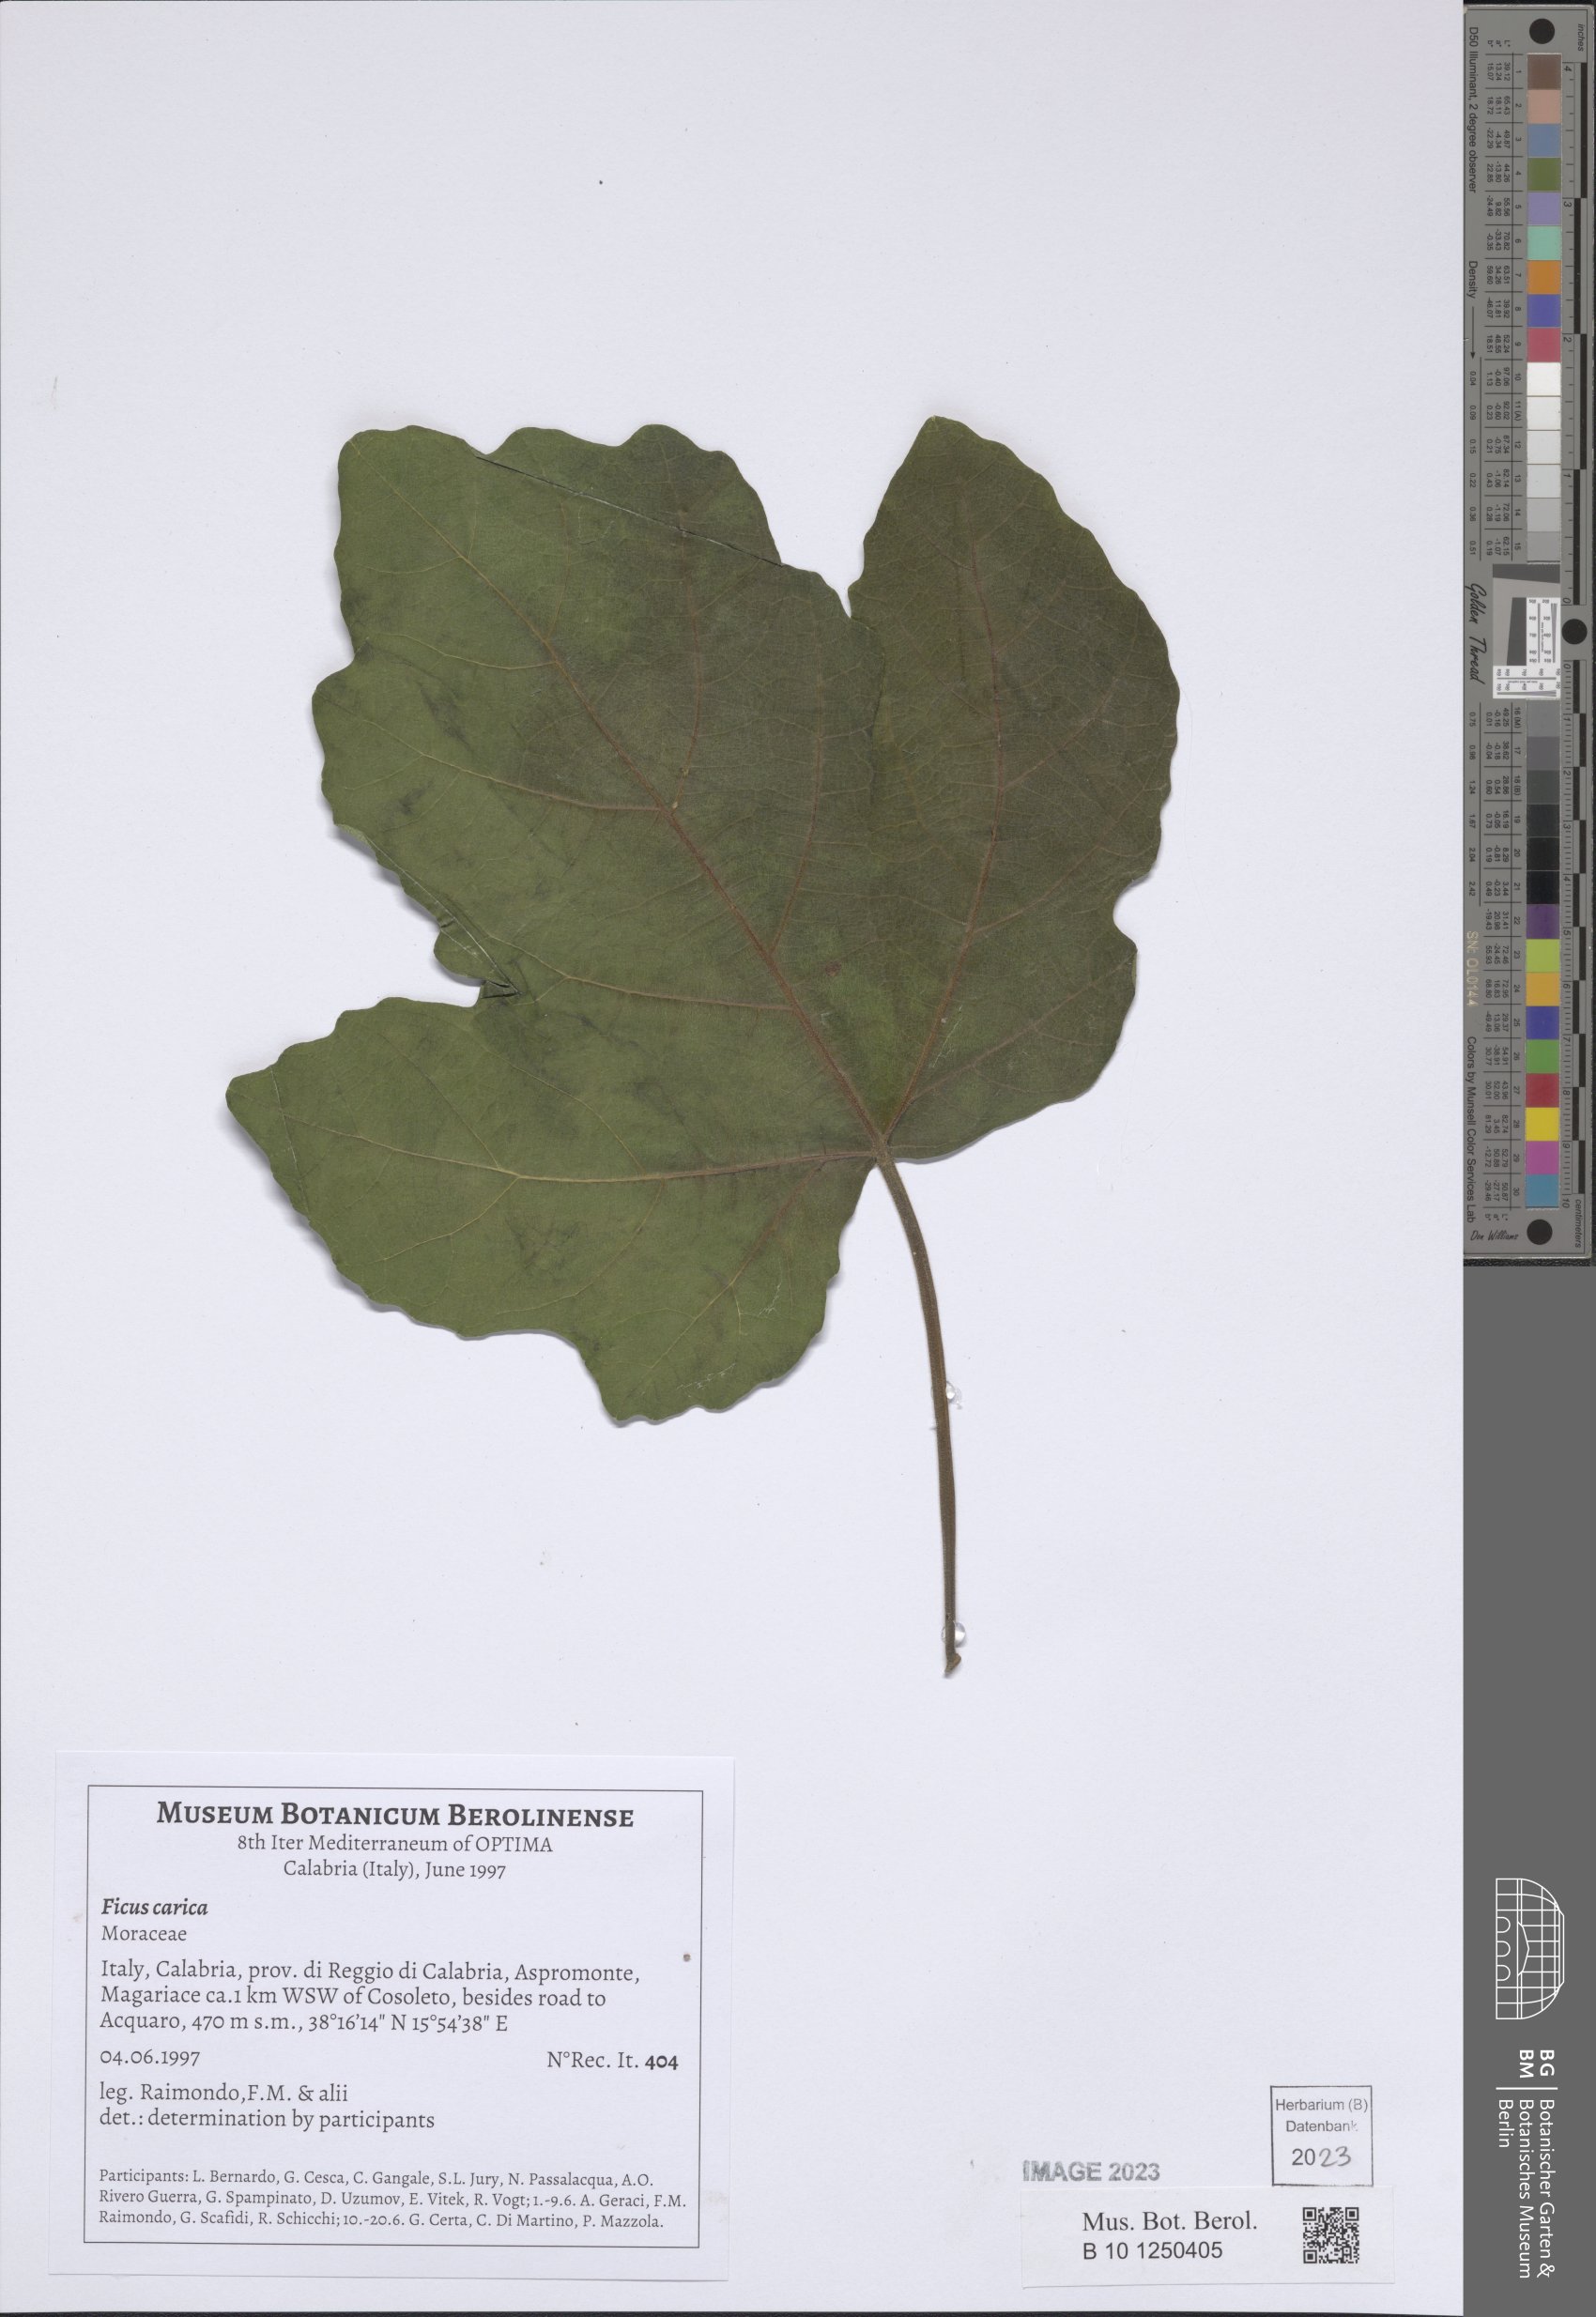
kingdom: Plantae
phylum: Tracheophyta
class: Magnoliopsida
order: Rosales
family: Moraceae
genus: Ficus
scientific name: Ficus carica
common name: Fig
